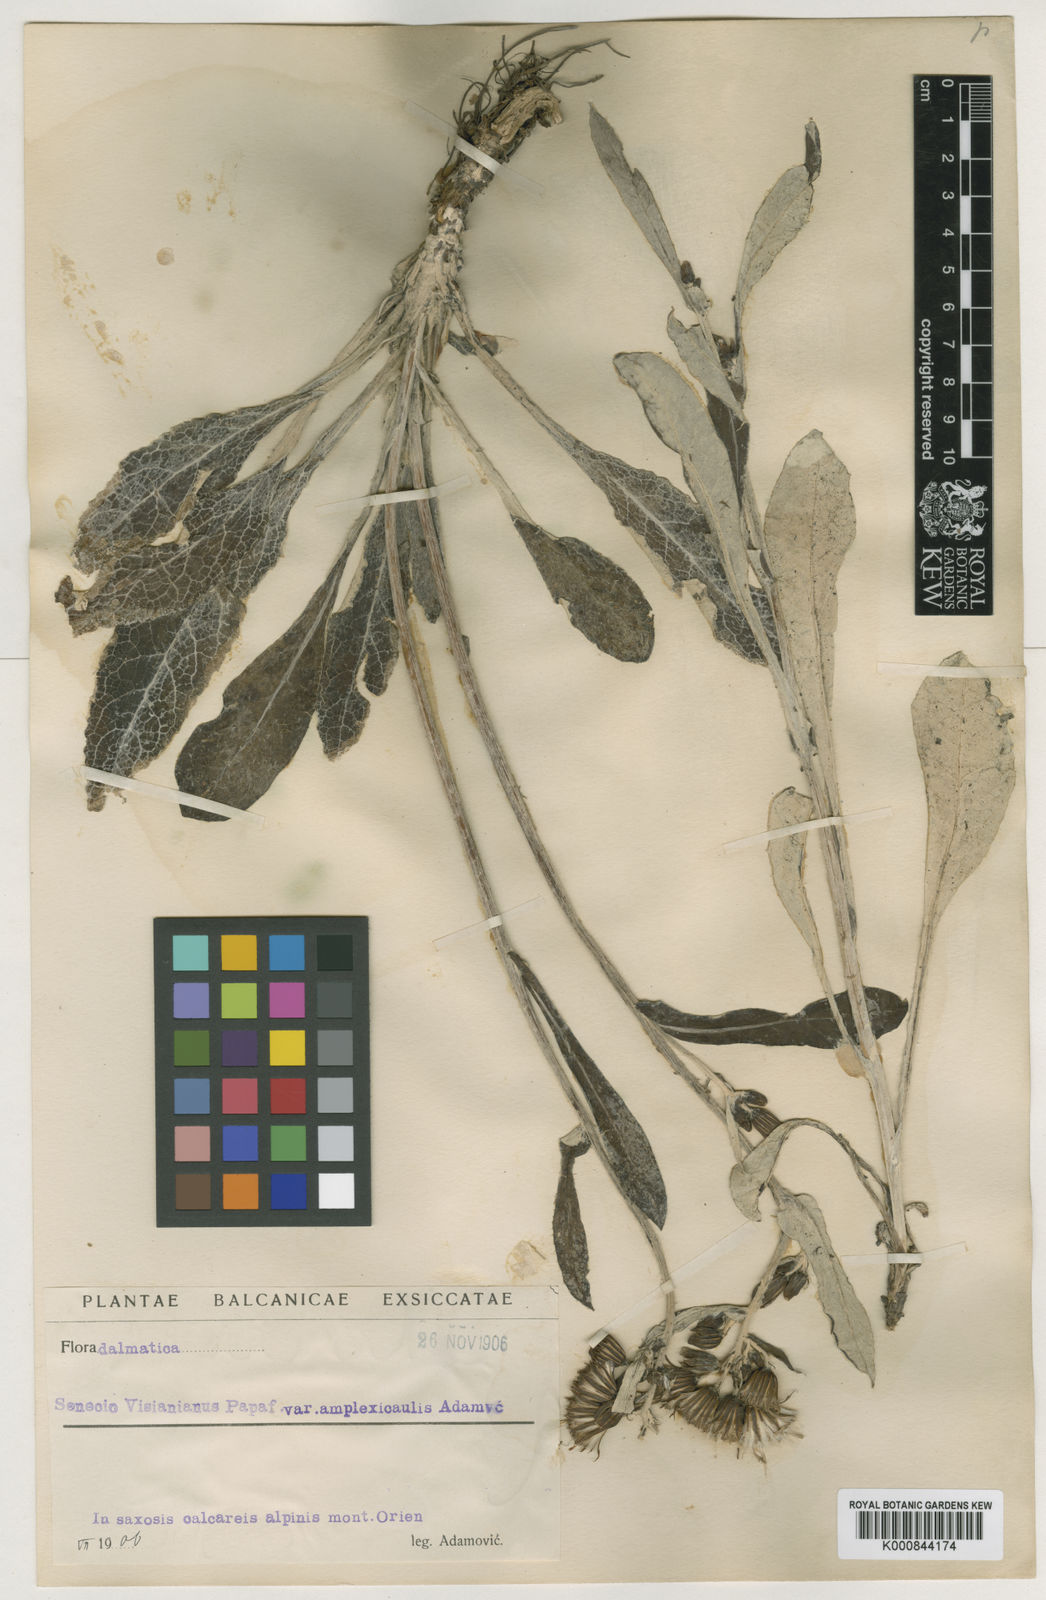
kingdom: Plantae
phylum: Tracheophyta
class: Magnoliopsida
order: Asterales
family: Asteraceae
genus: Senecio
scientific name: Senecio thapsoides
